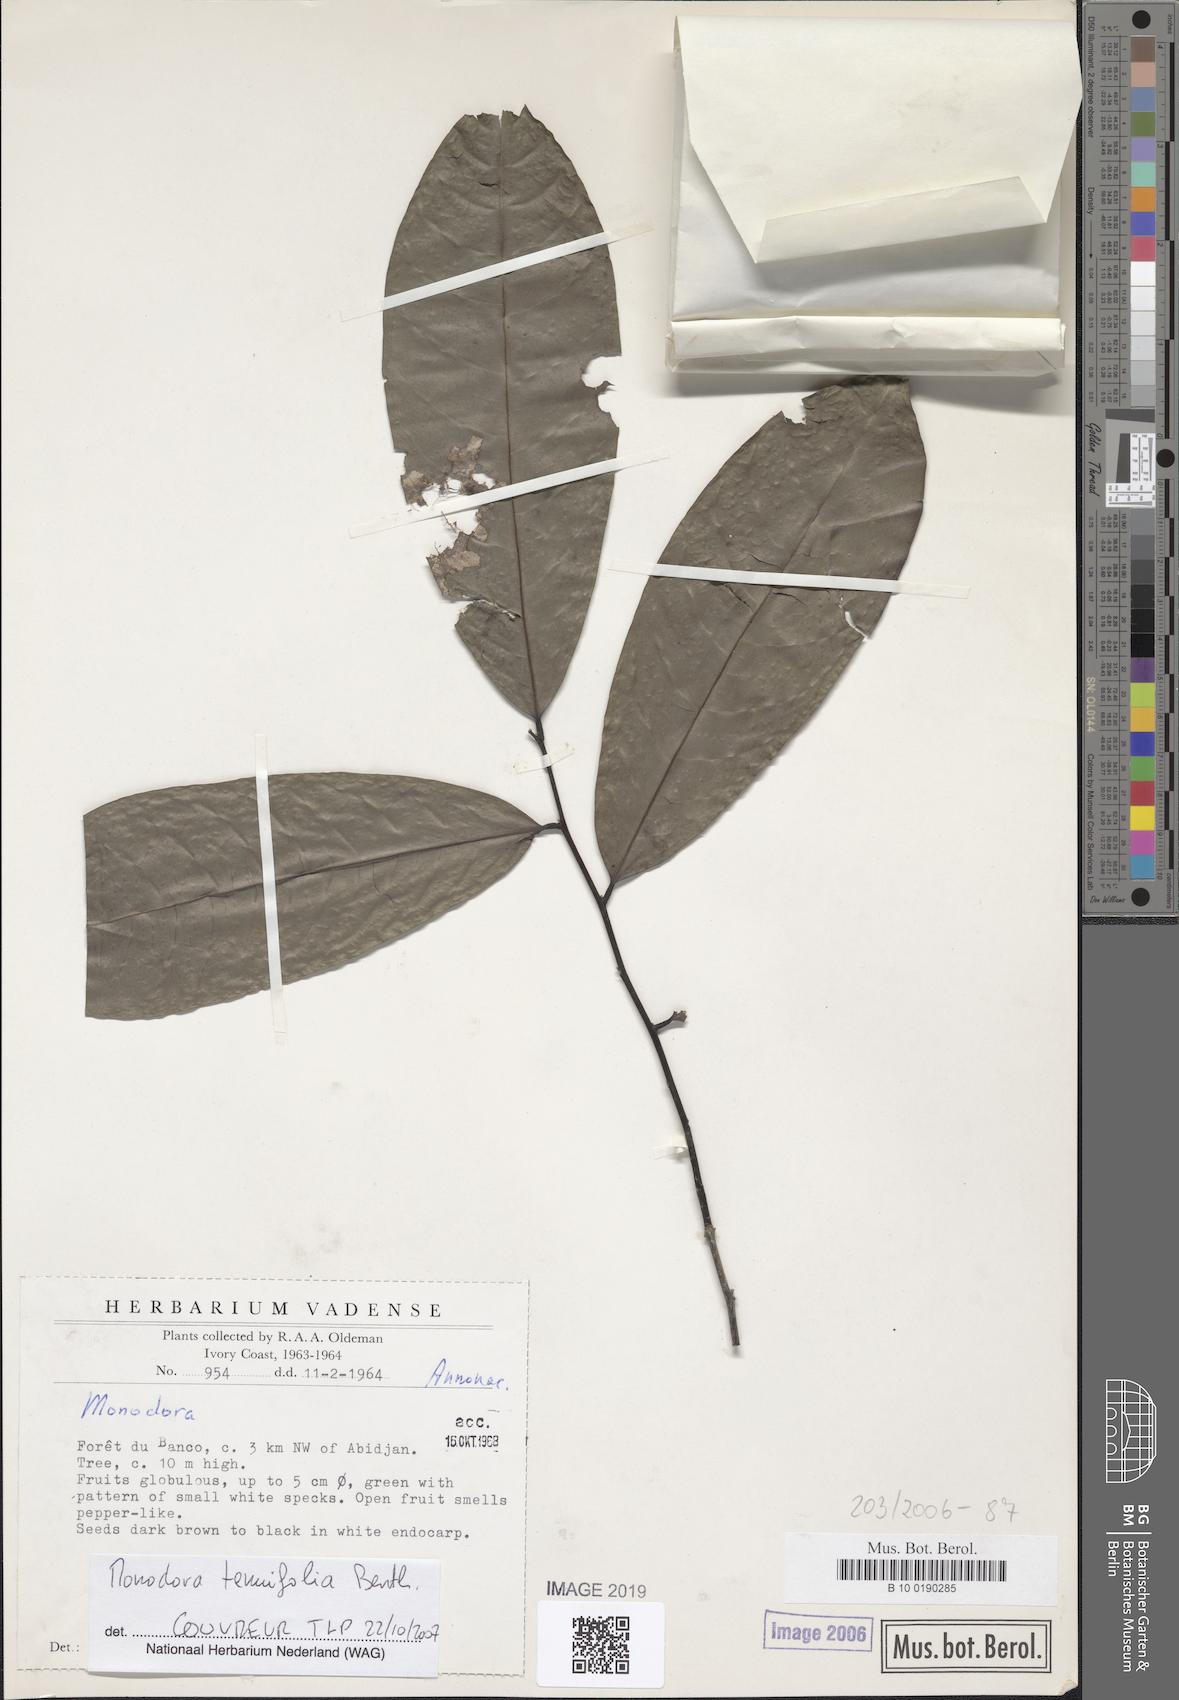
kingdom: Plantae
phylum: Tracheophyta
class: Magnoliopsida
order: Magnoliales
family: Annonaceae
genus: Monodora
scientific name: Monodora
